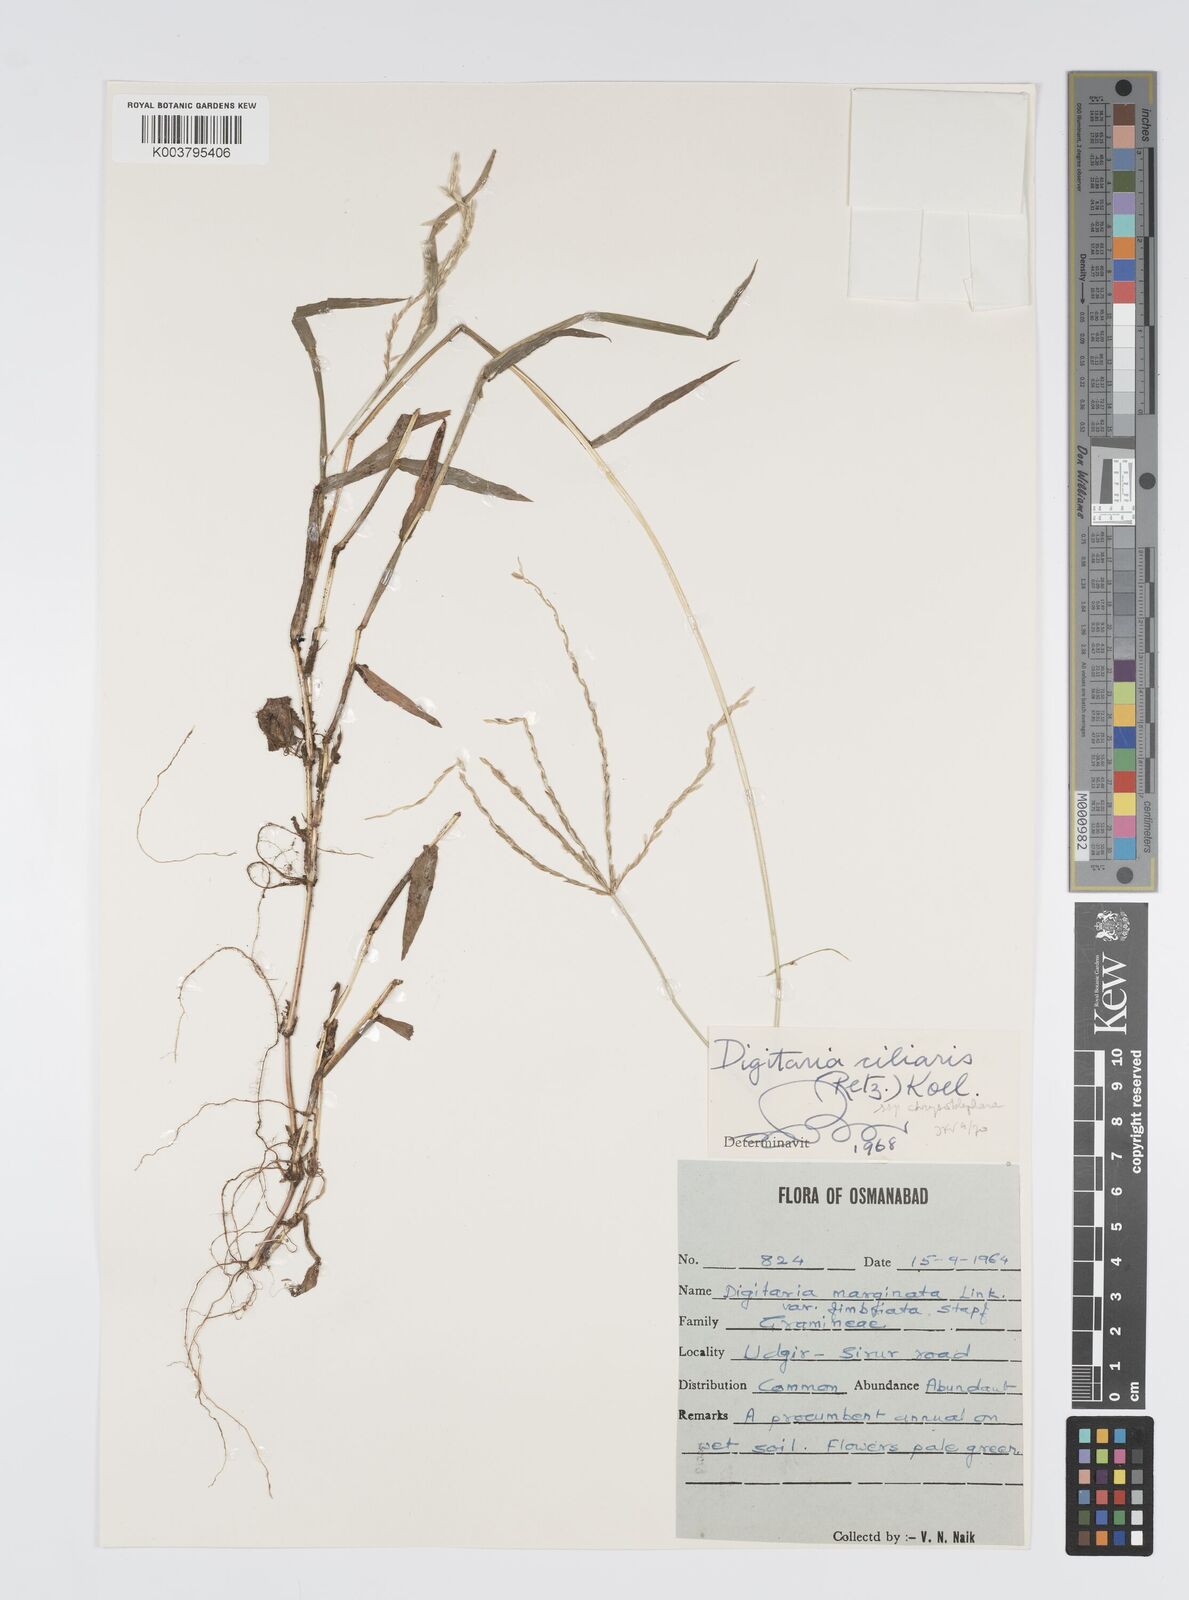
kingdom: Plantae
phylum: Tracheophyta
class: Liliopsida
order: Poales
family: Poaceae
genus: Digitaria
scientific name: Digitaria ciliaris
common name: Tropical finger-grass
